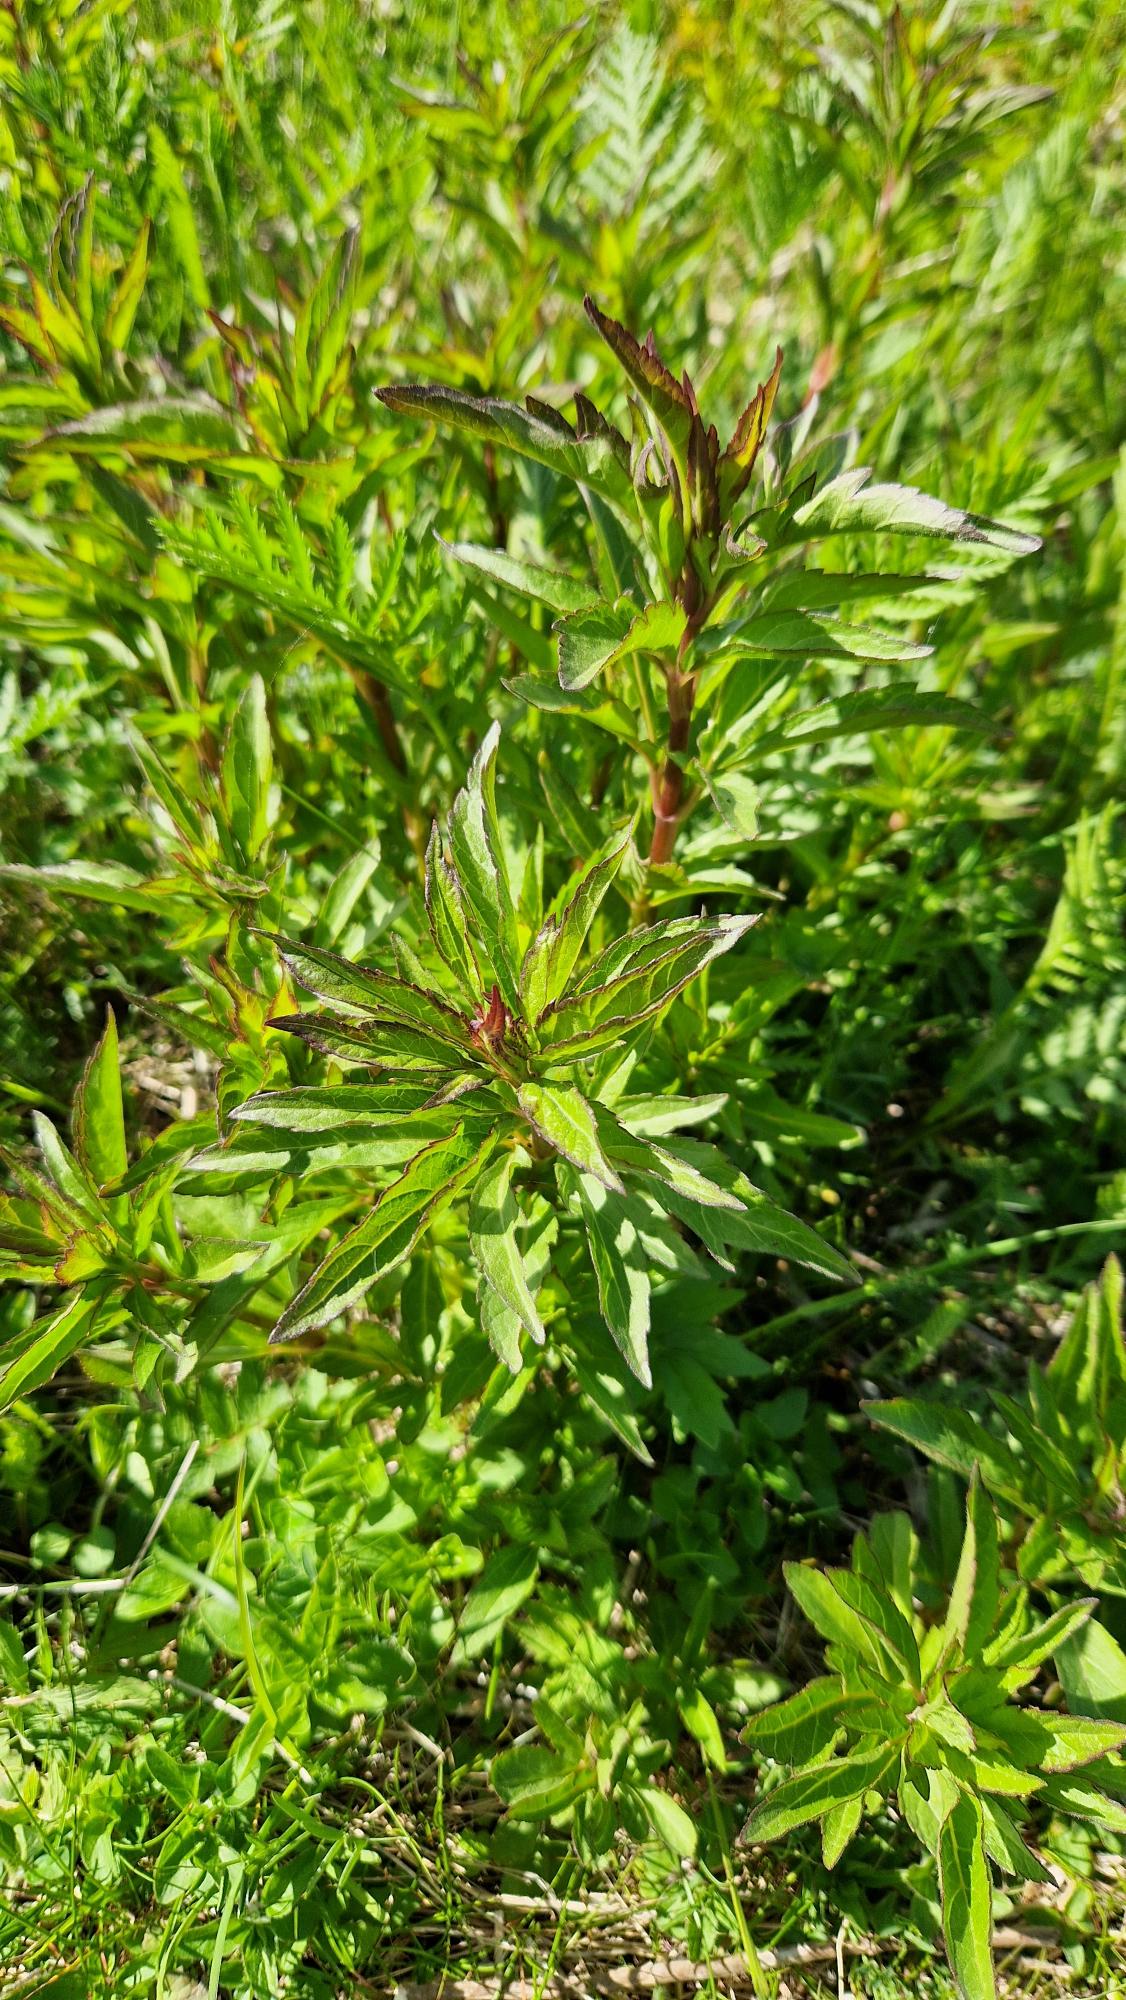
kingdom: Plantae
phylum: Tracheophyta
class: Magnoliopsida
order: Asterales
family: Asteraceae
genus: Eupatorium
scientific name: Eupatorium cannabinum
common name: Hjortetrøst
